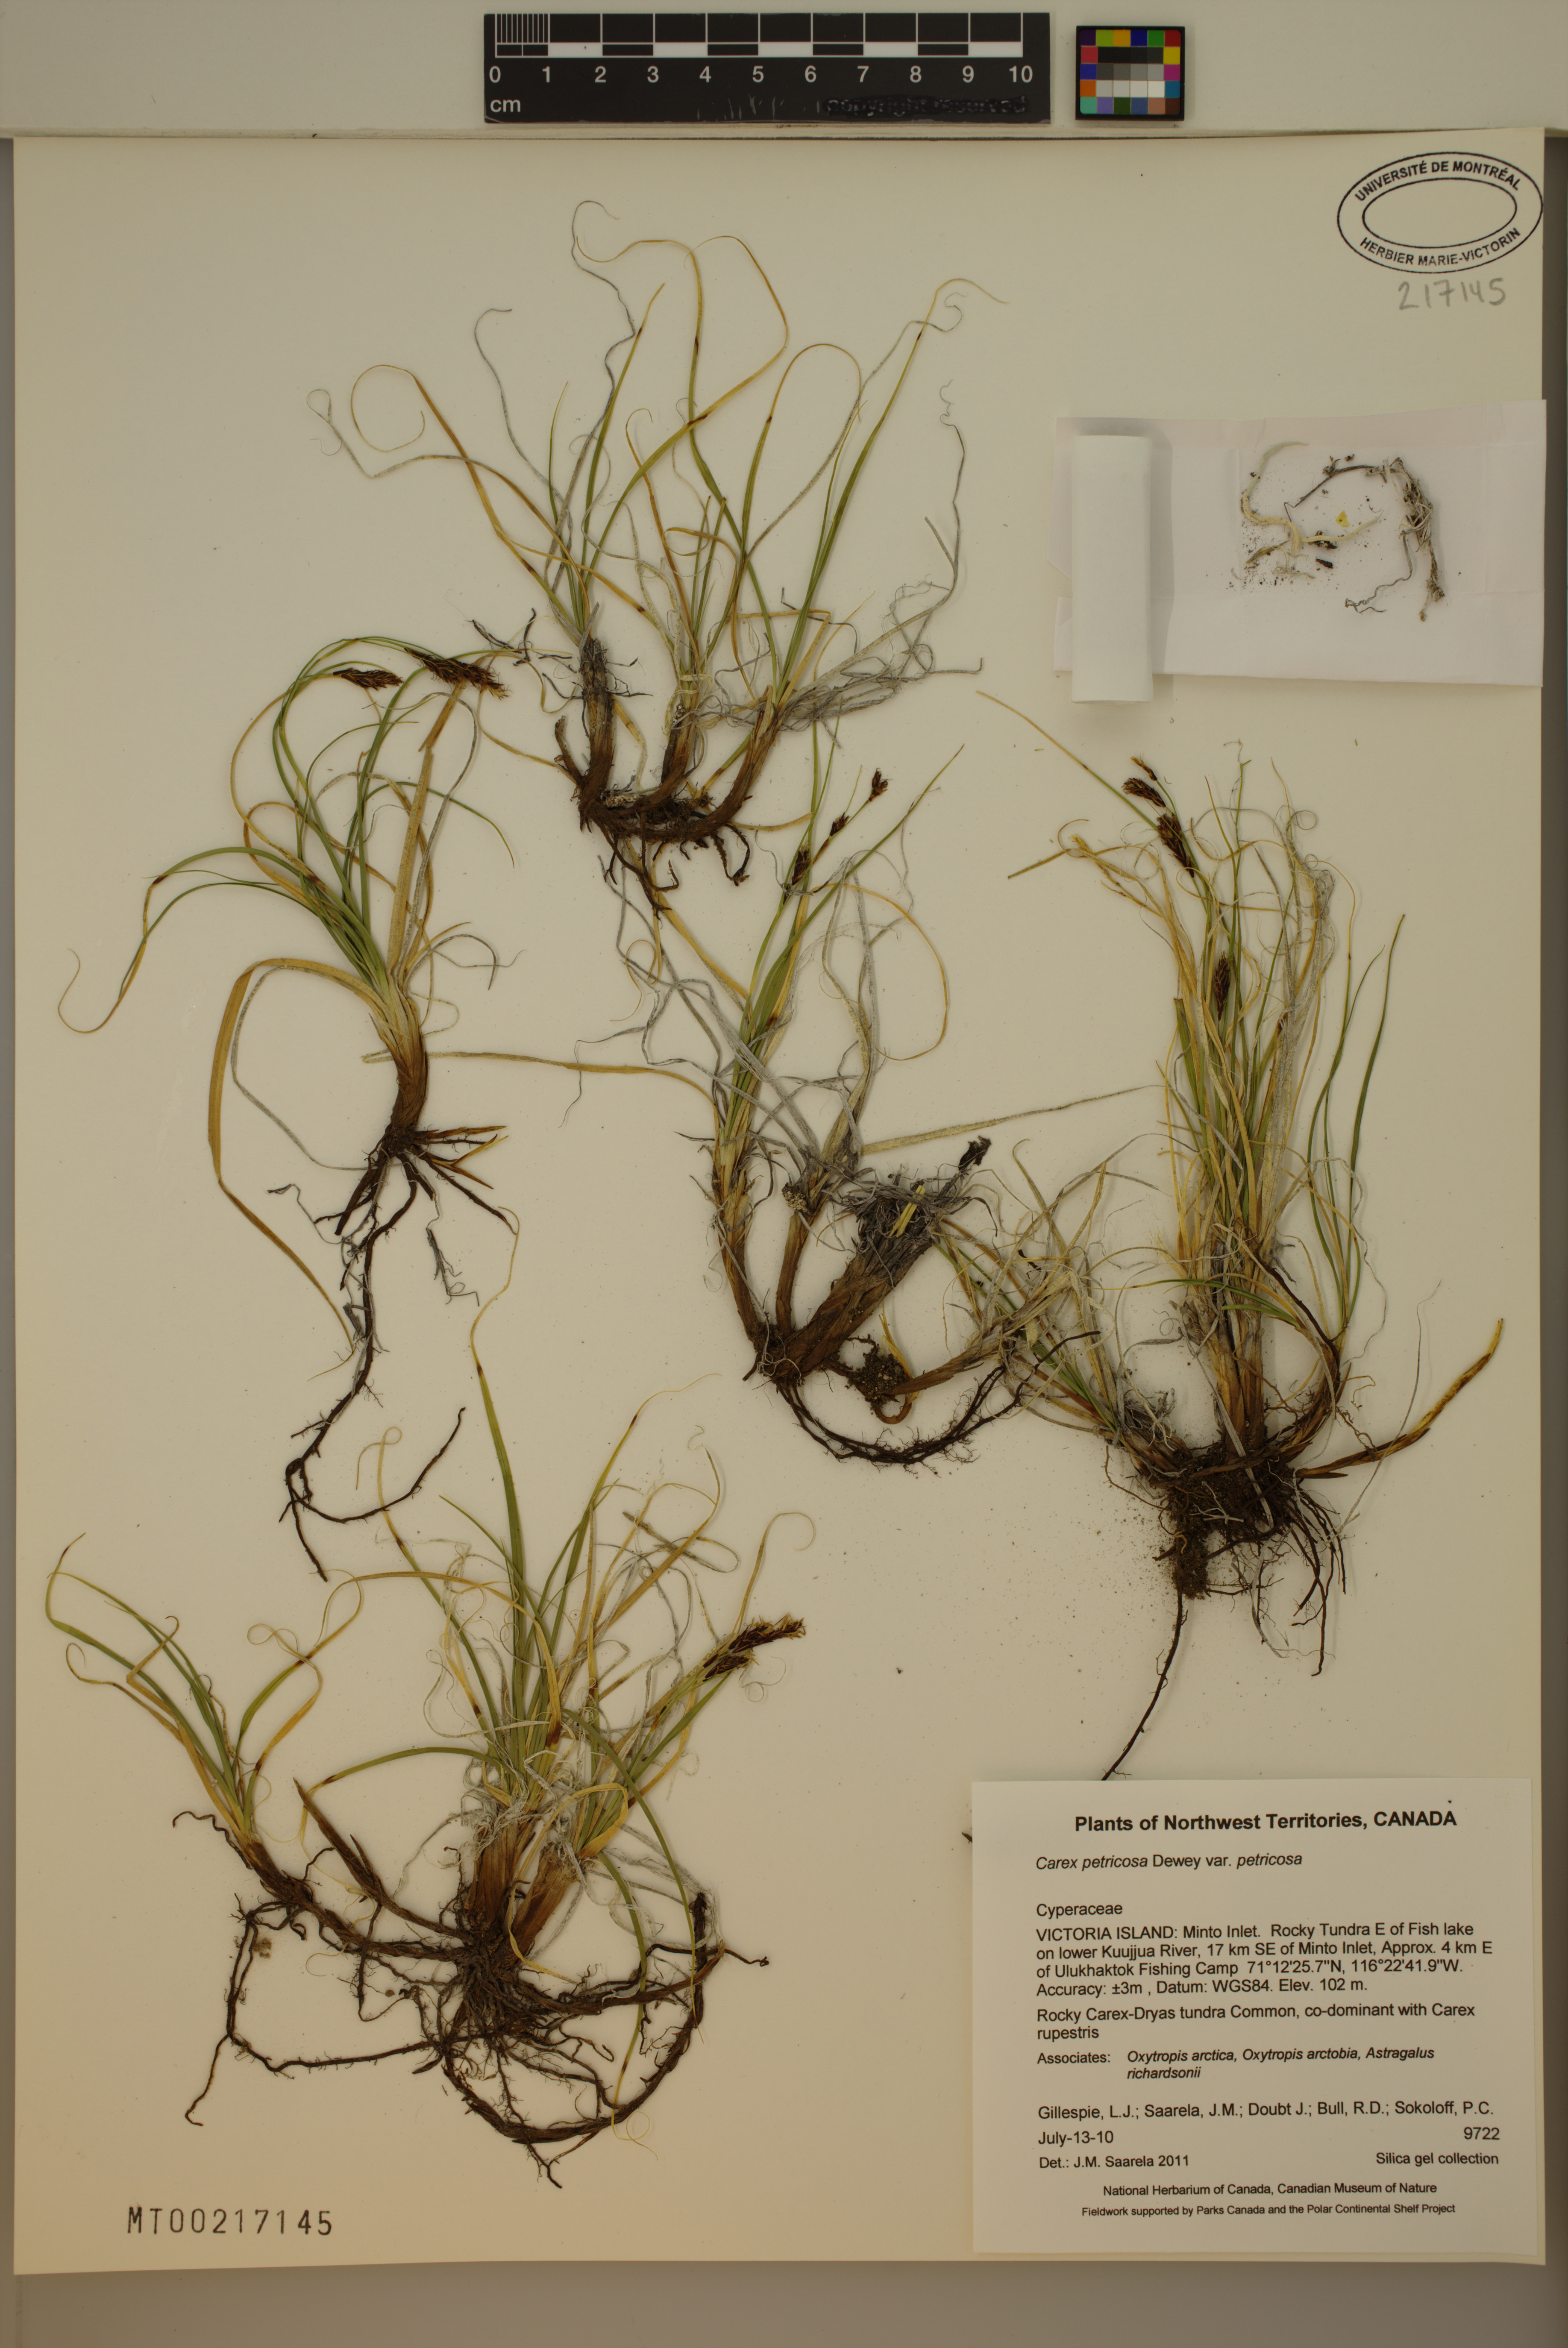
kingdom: Plantae
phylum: Tracheophyta
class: Liliopsida
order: Poales
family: Cyperaceae
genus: Carex
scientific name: Carex petricosa
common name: Rock sedge
